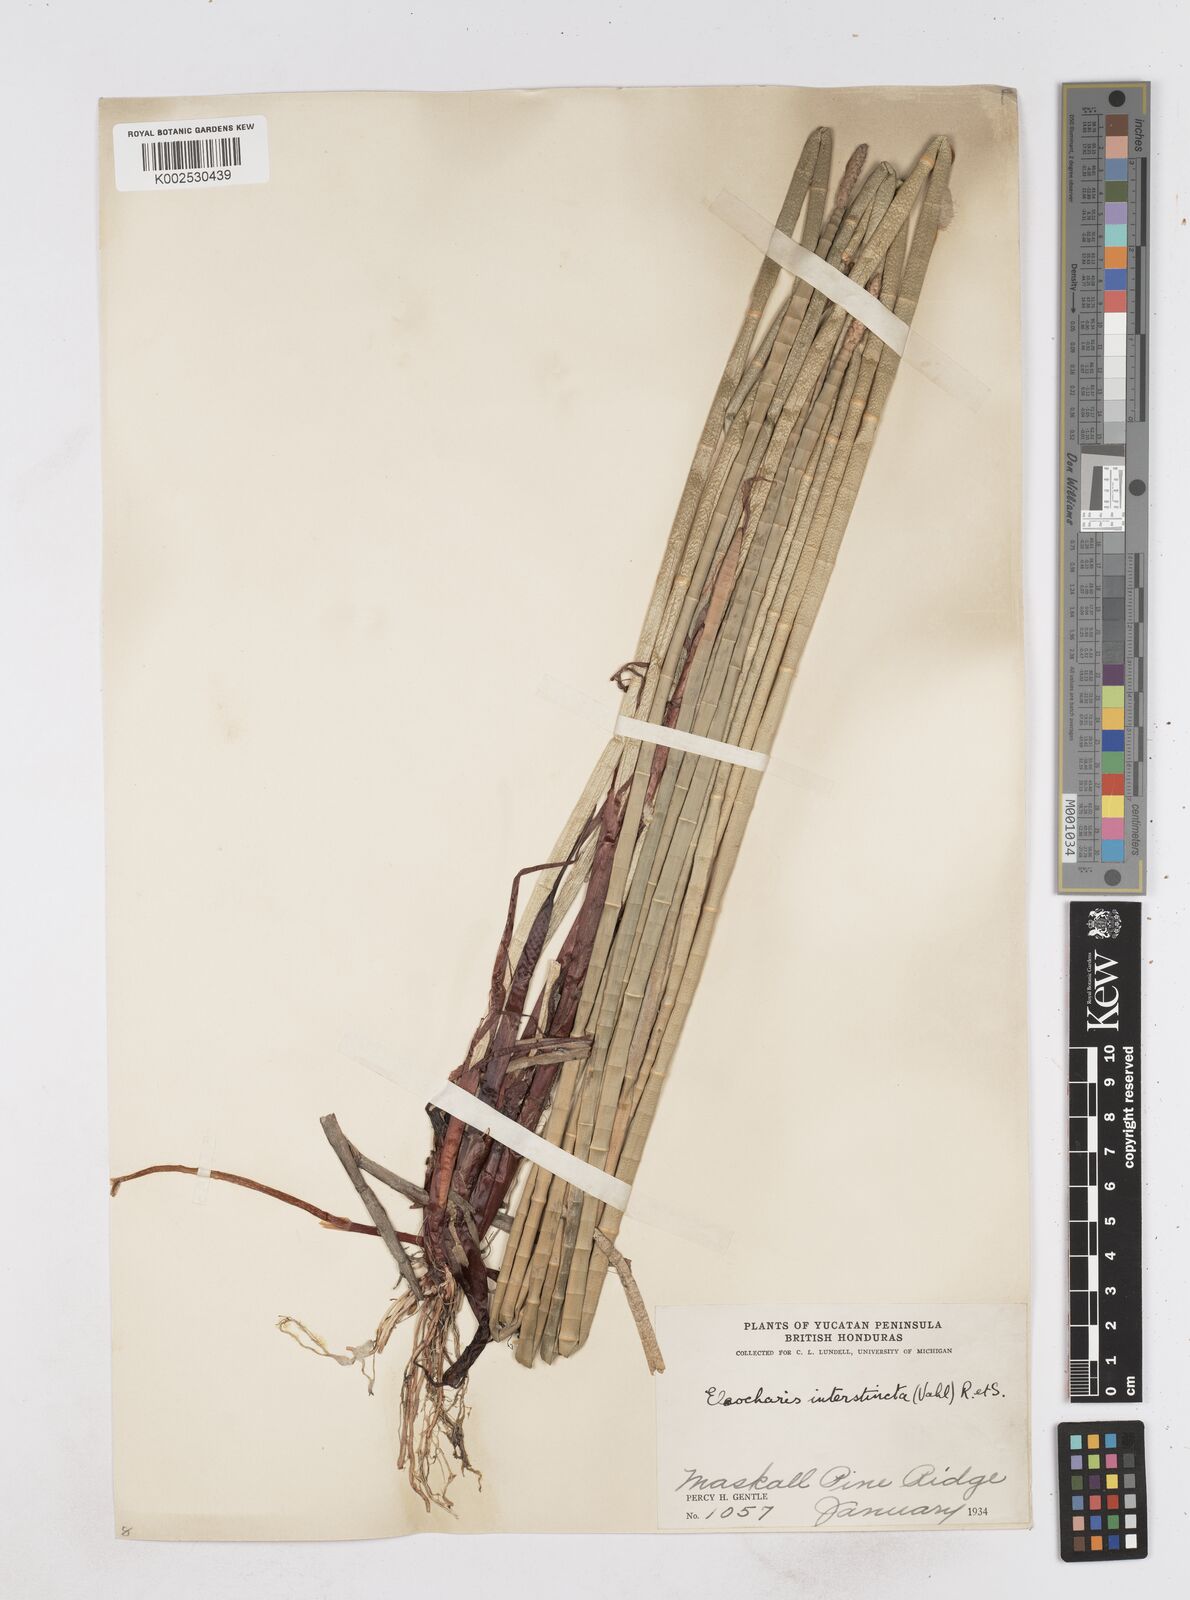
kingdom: Plantae
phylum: Tracheophyta
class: Liliopsida
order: Poales
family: Cyperaceae
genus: Eleocharis
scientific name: Eleocharis interstincta
